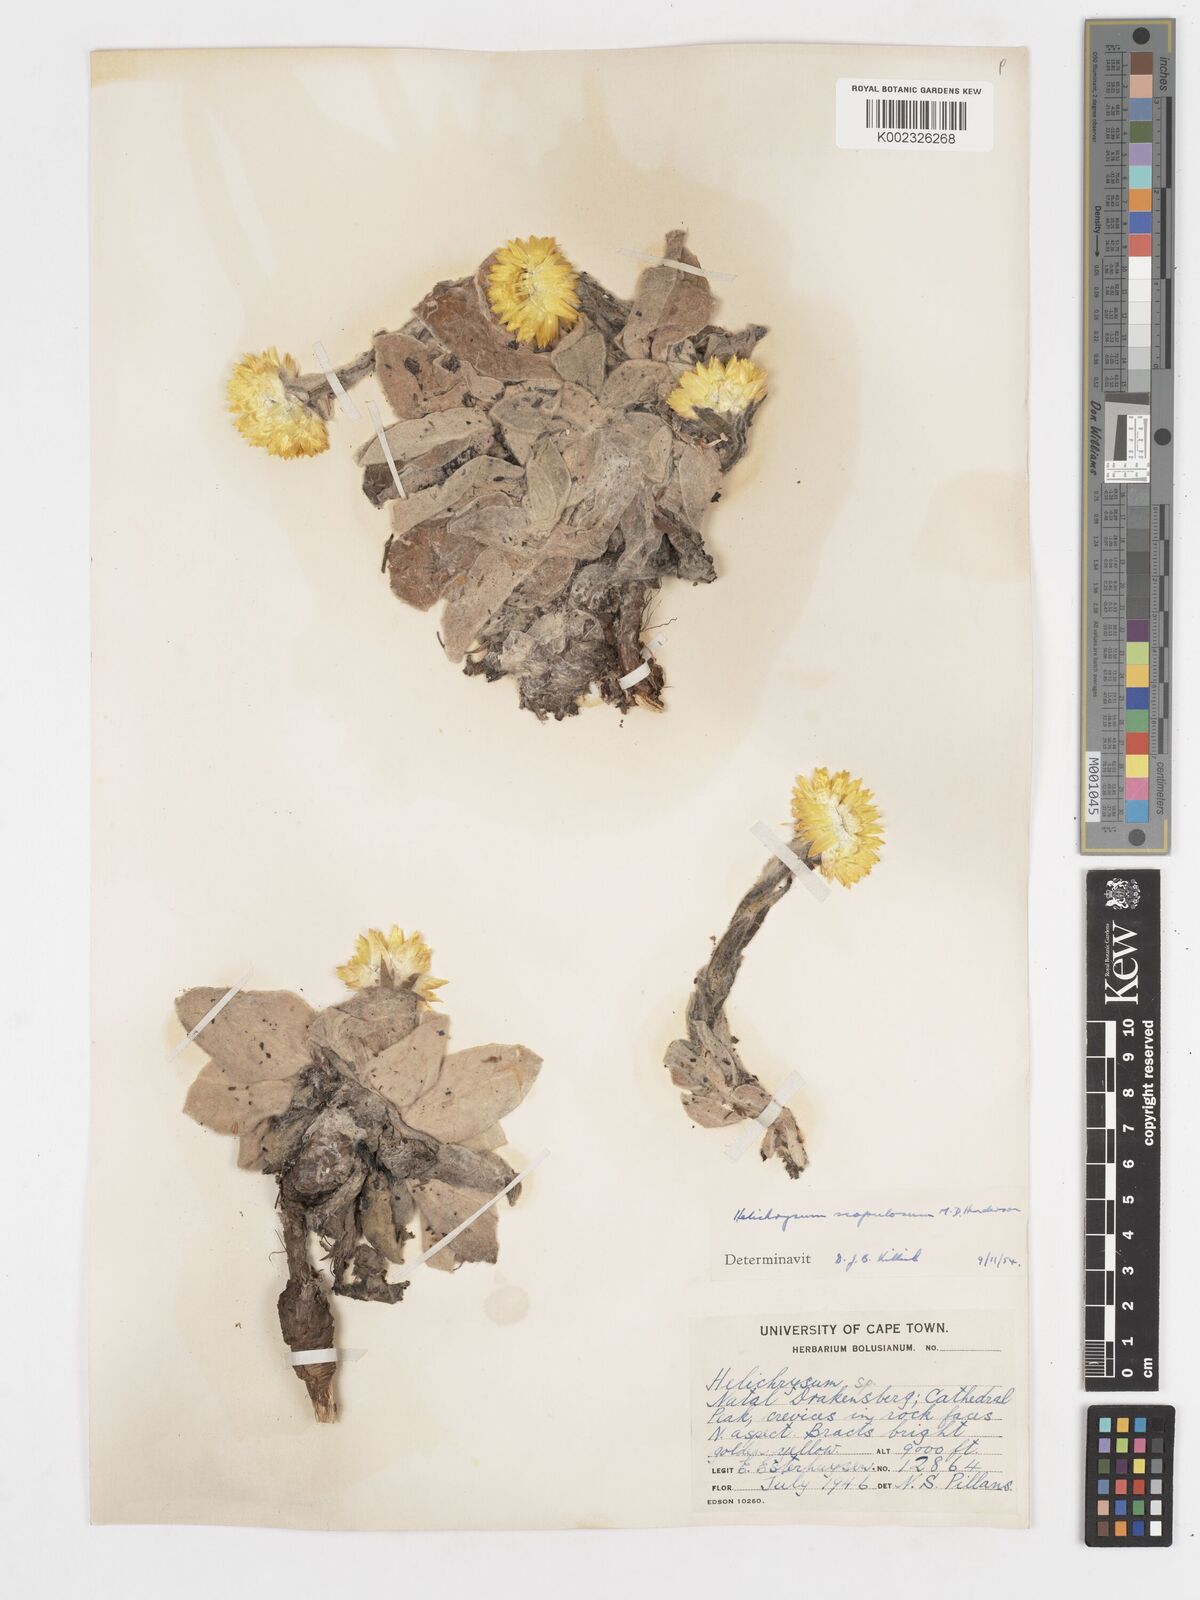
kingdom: Plantae
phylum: Tracheophyta
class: Magnoliopsida
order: Asterales
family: Asteraceae
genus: Helichrysum
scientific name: Helichrysum aureum
